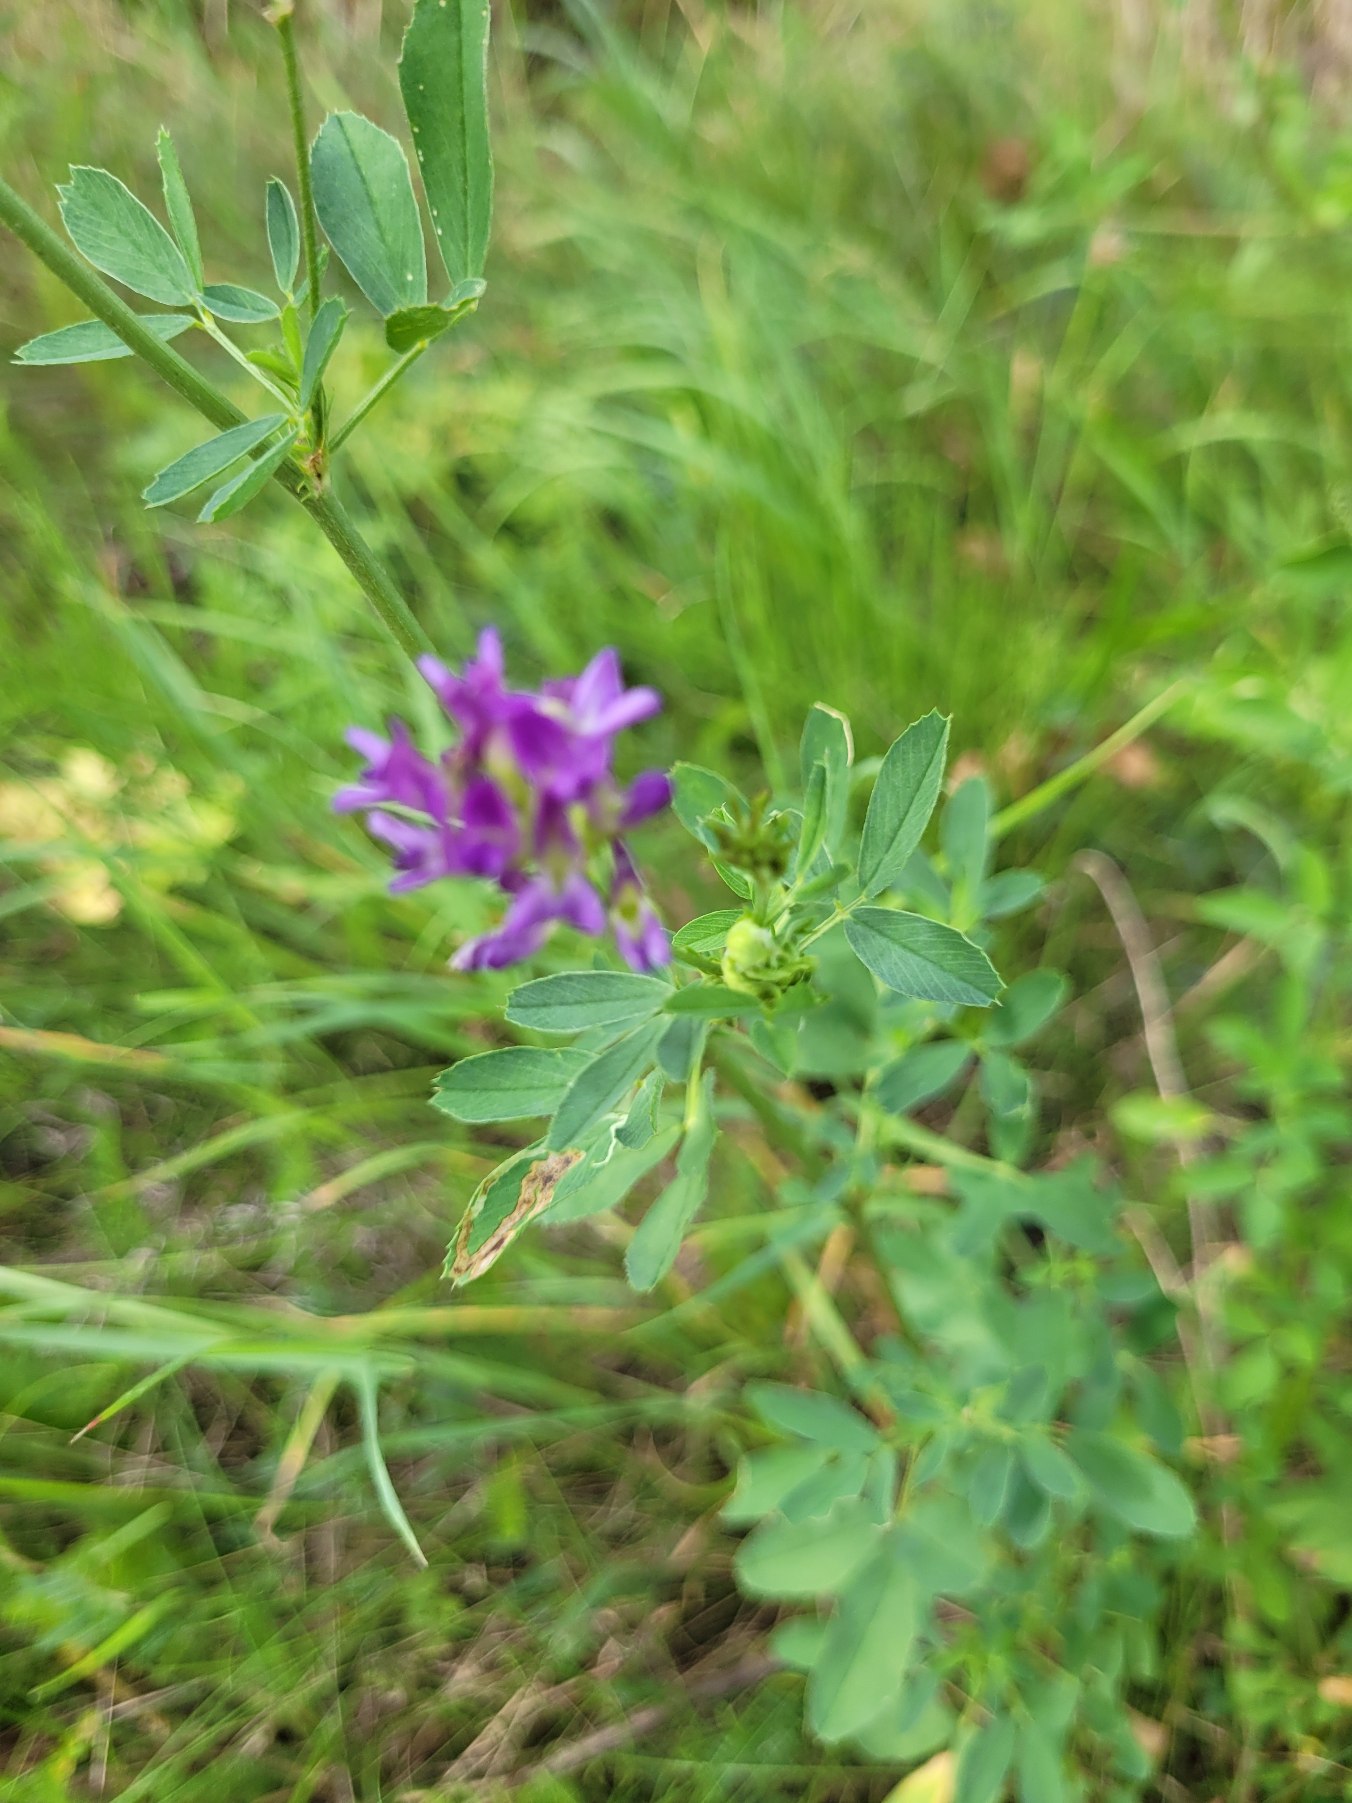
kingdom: Plantae
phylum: Tracheophyta
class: Magnoliopsida
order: Fabales
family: Fabaceae
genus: Medicago
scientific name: Medicago sativa
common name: Lucerne
